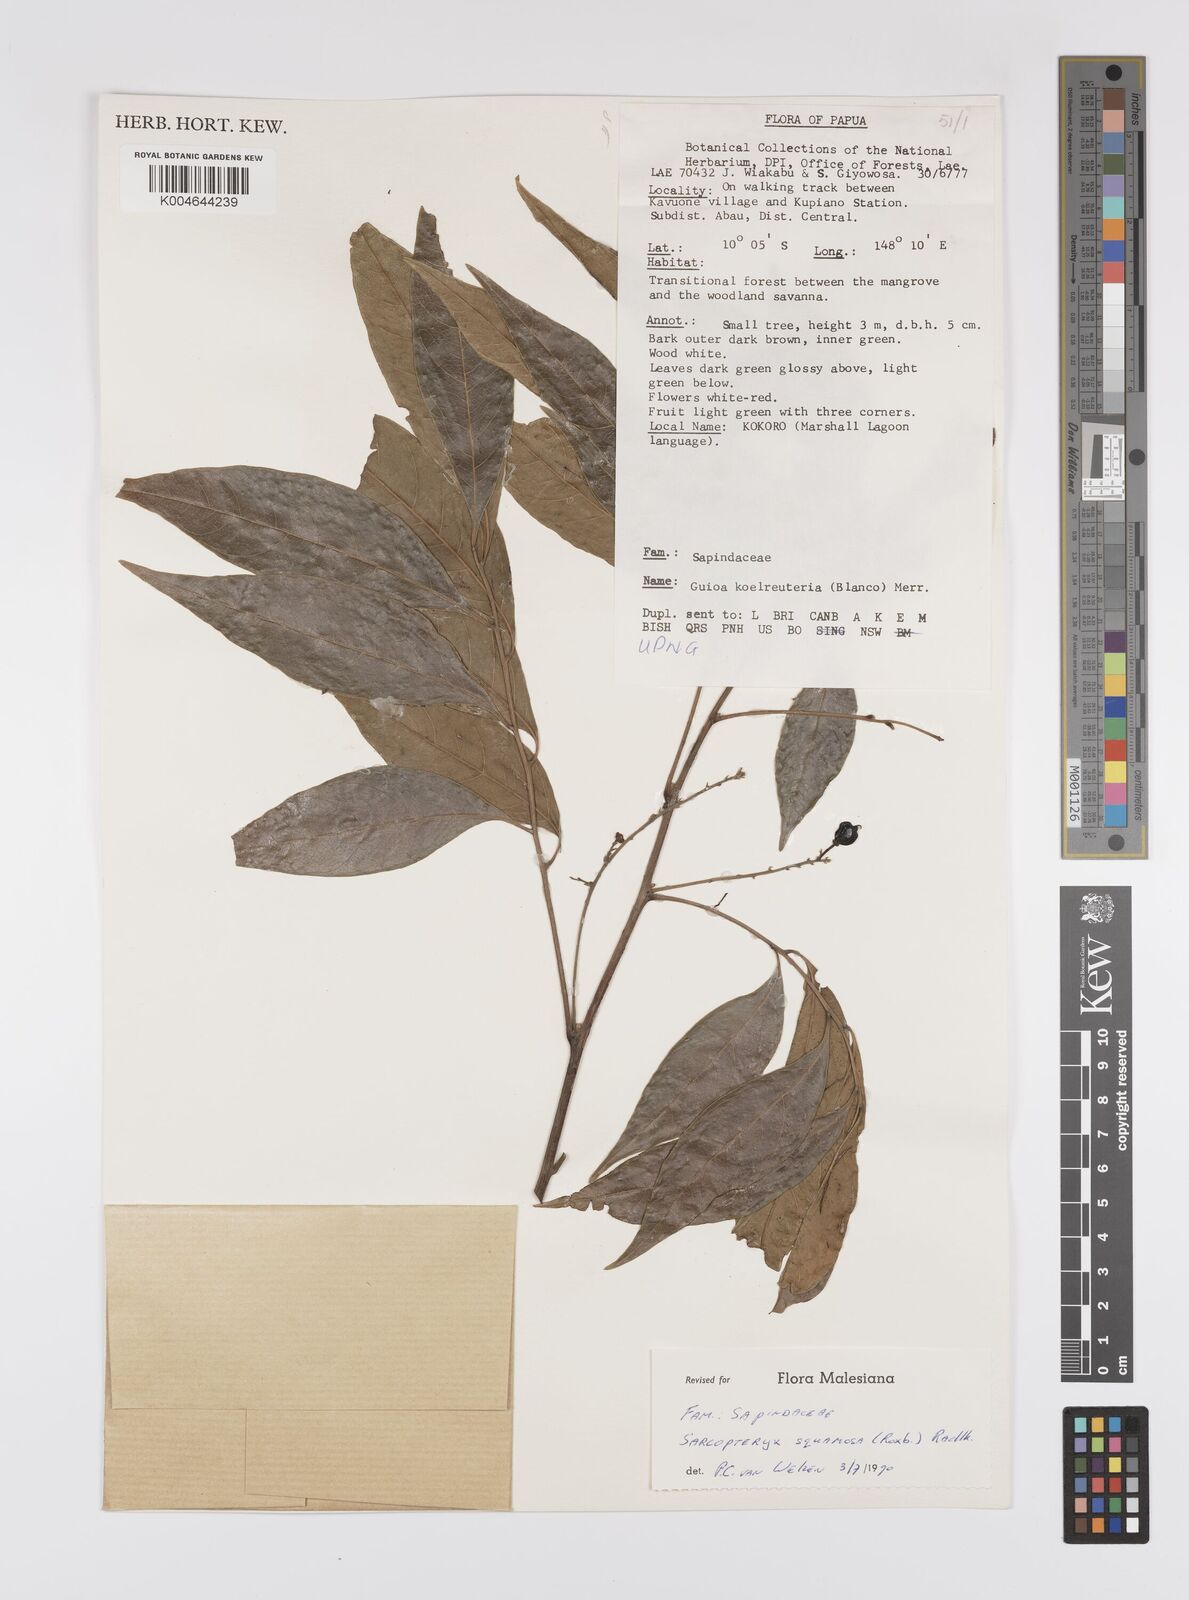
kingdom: Plantae
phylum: Tracheophyta
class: Magnoliopsida
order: Sapindales
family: Sapindaceae
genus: Sarcopteryx
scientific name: Sarcopteryx squamosa
